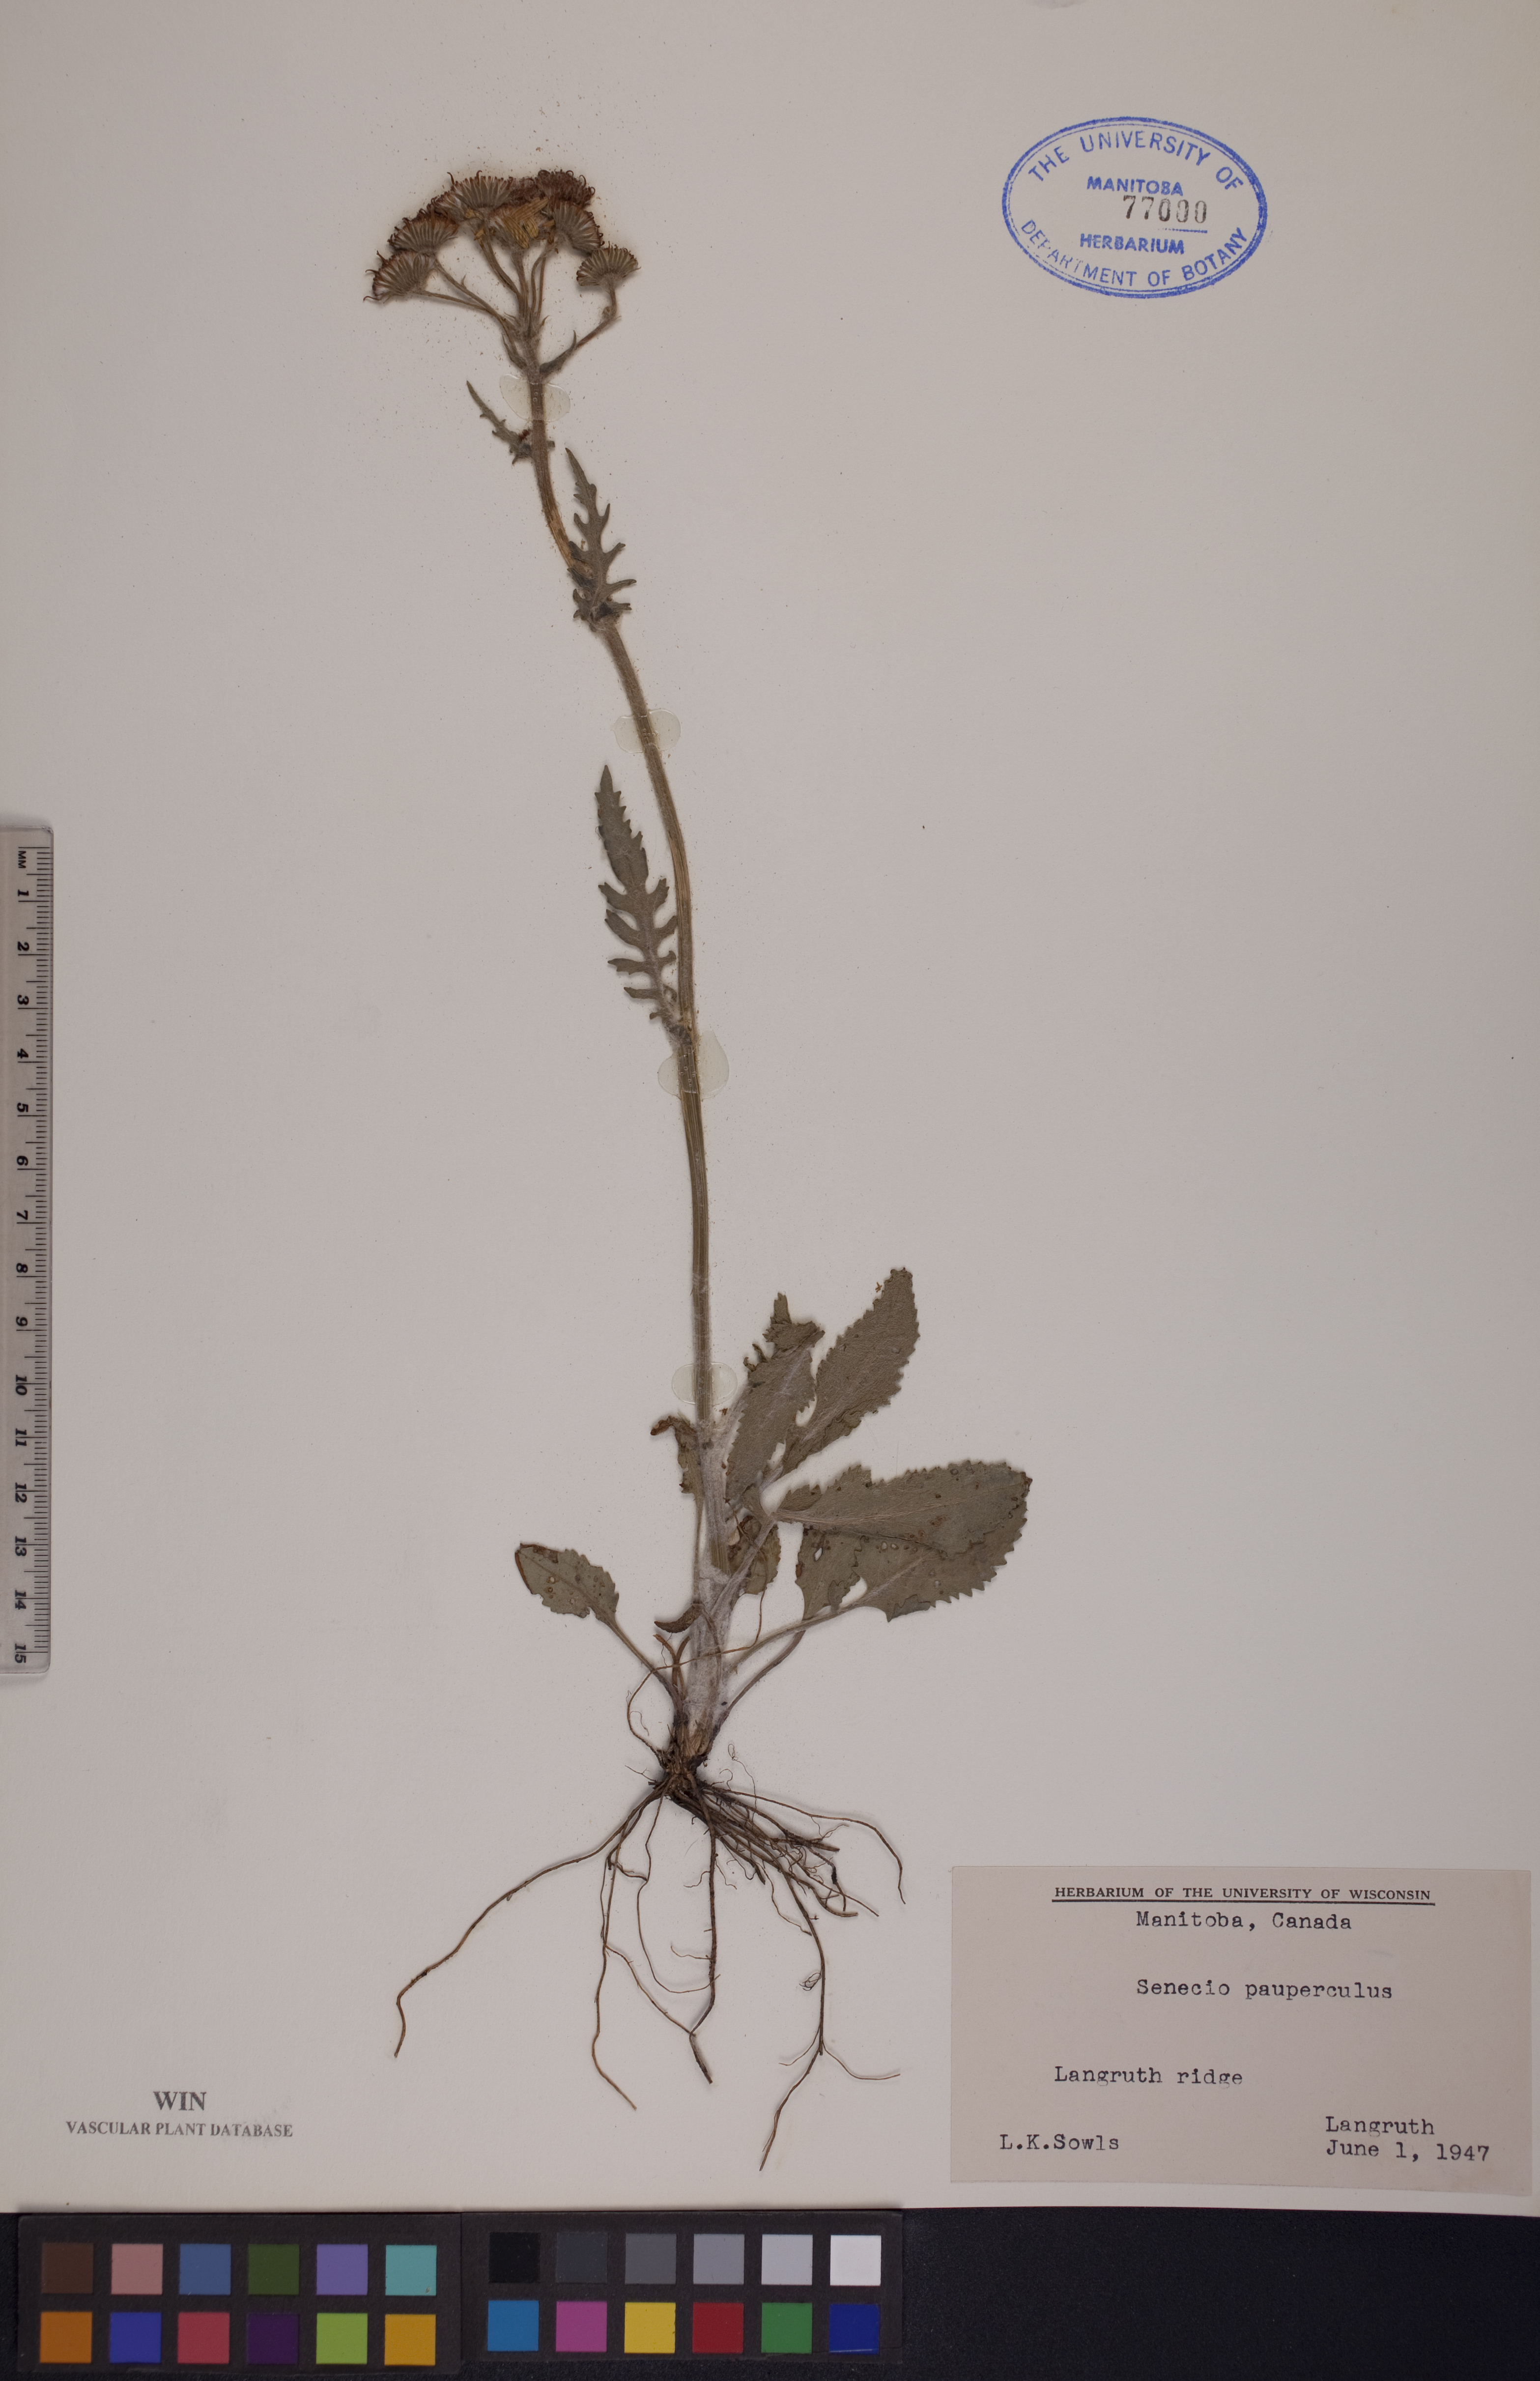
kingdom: Plantae
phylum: Tracheophyta
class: Magnoliopsida
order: Asterales
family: Asteraceae
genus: Packera
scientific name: Packera paupercula
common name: Balsam groundsel
